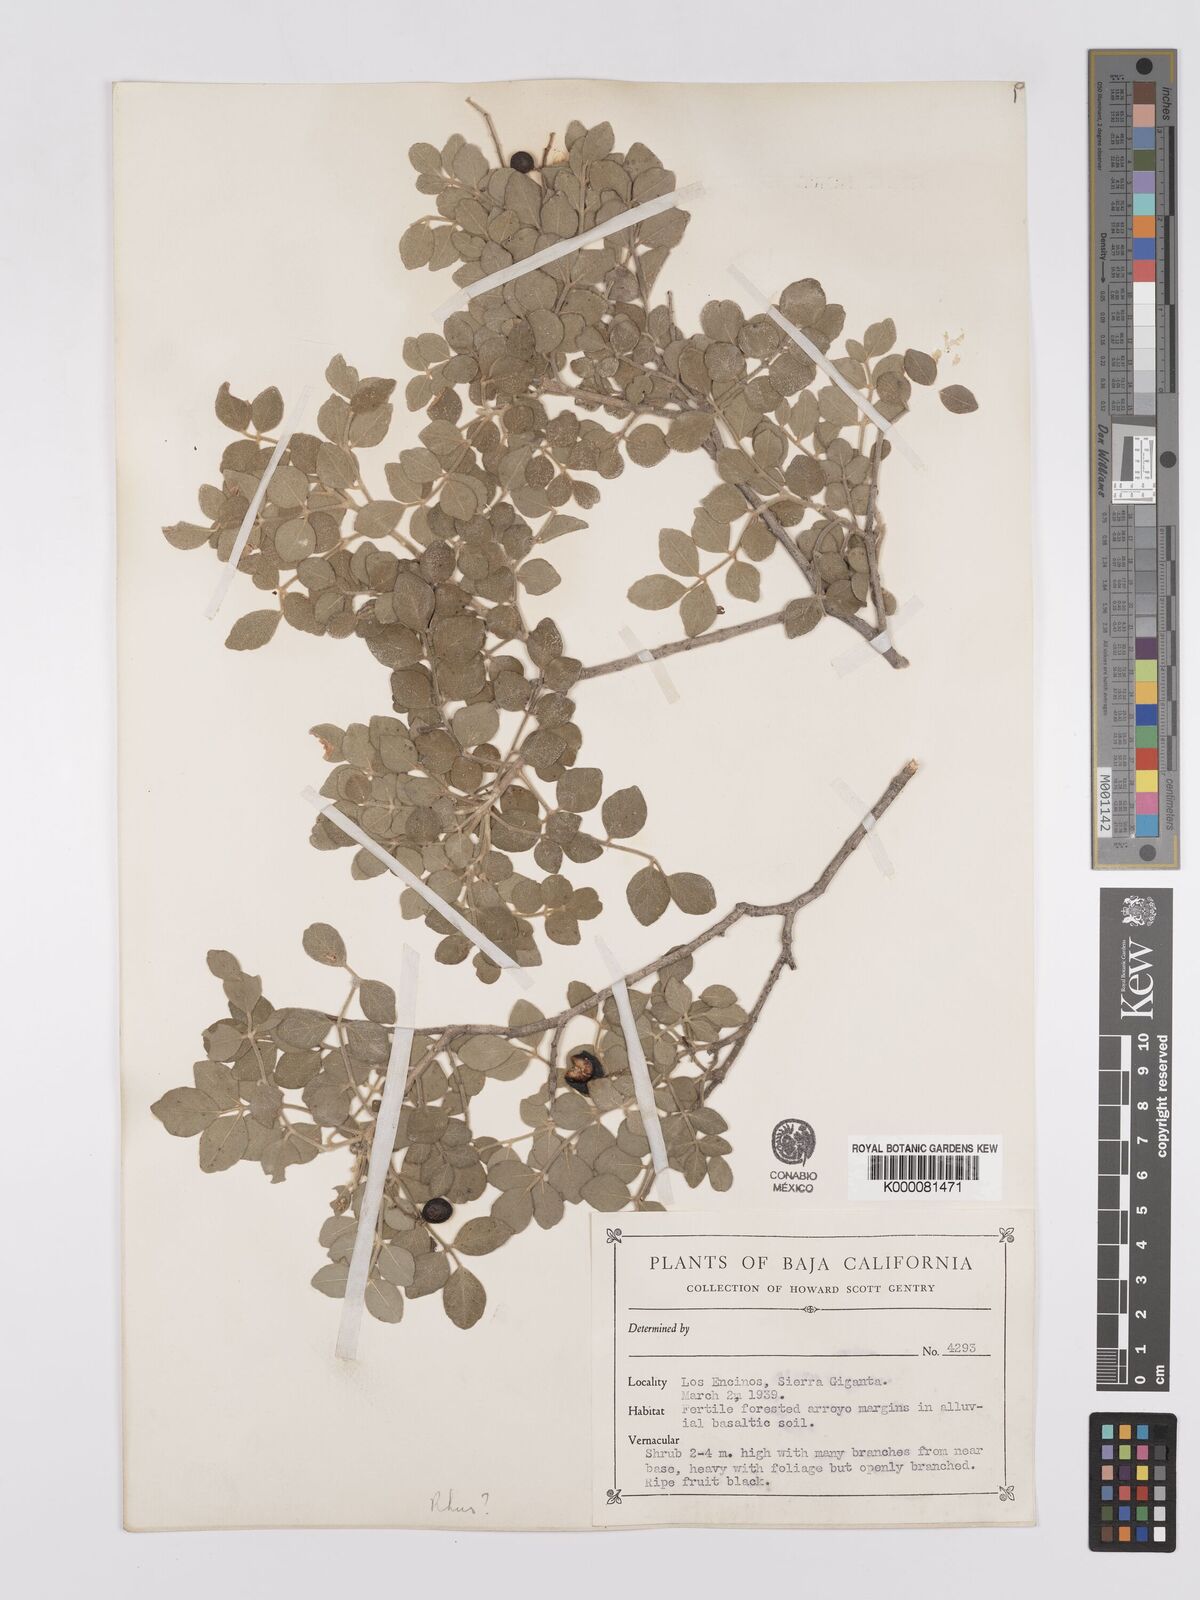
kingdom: Plantae
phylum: Tracheophyta
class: Magnoliopsida
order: Sapindales
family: Anacardiaceae
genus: Rhus
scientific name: Rhus
